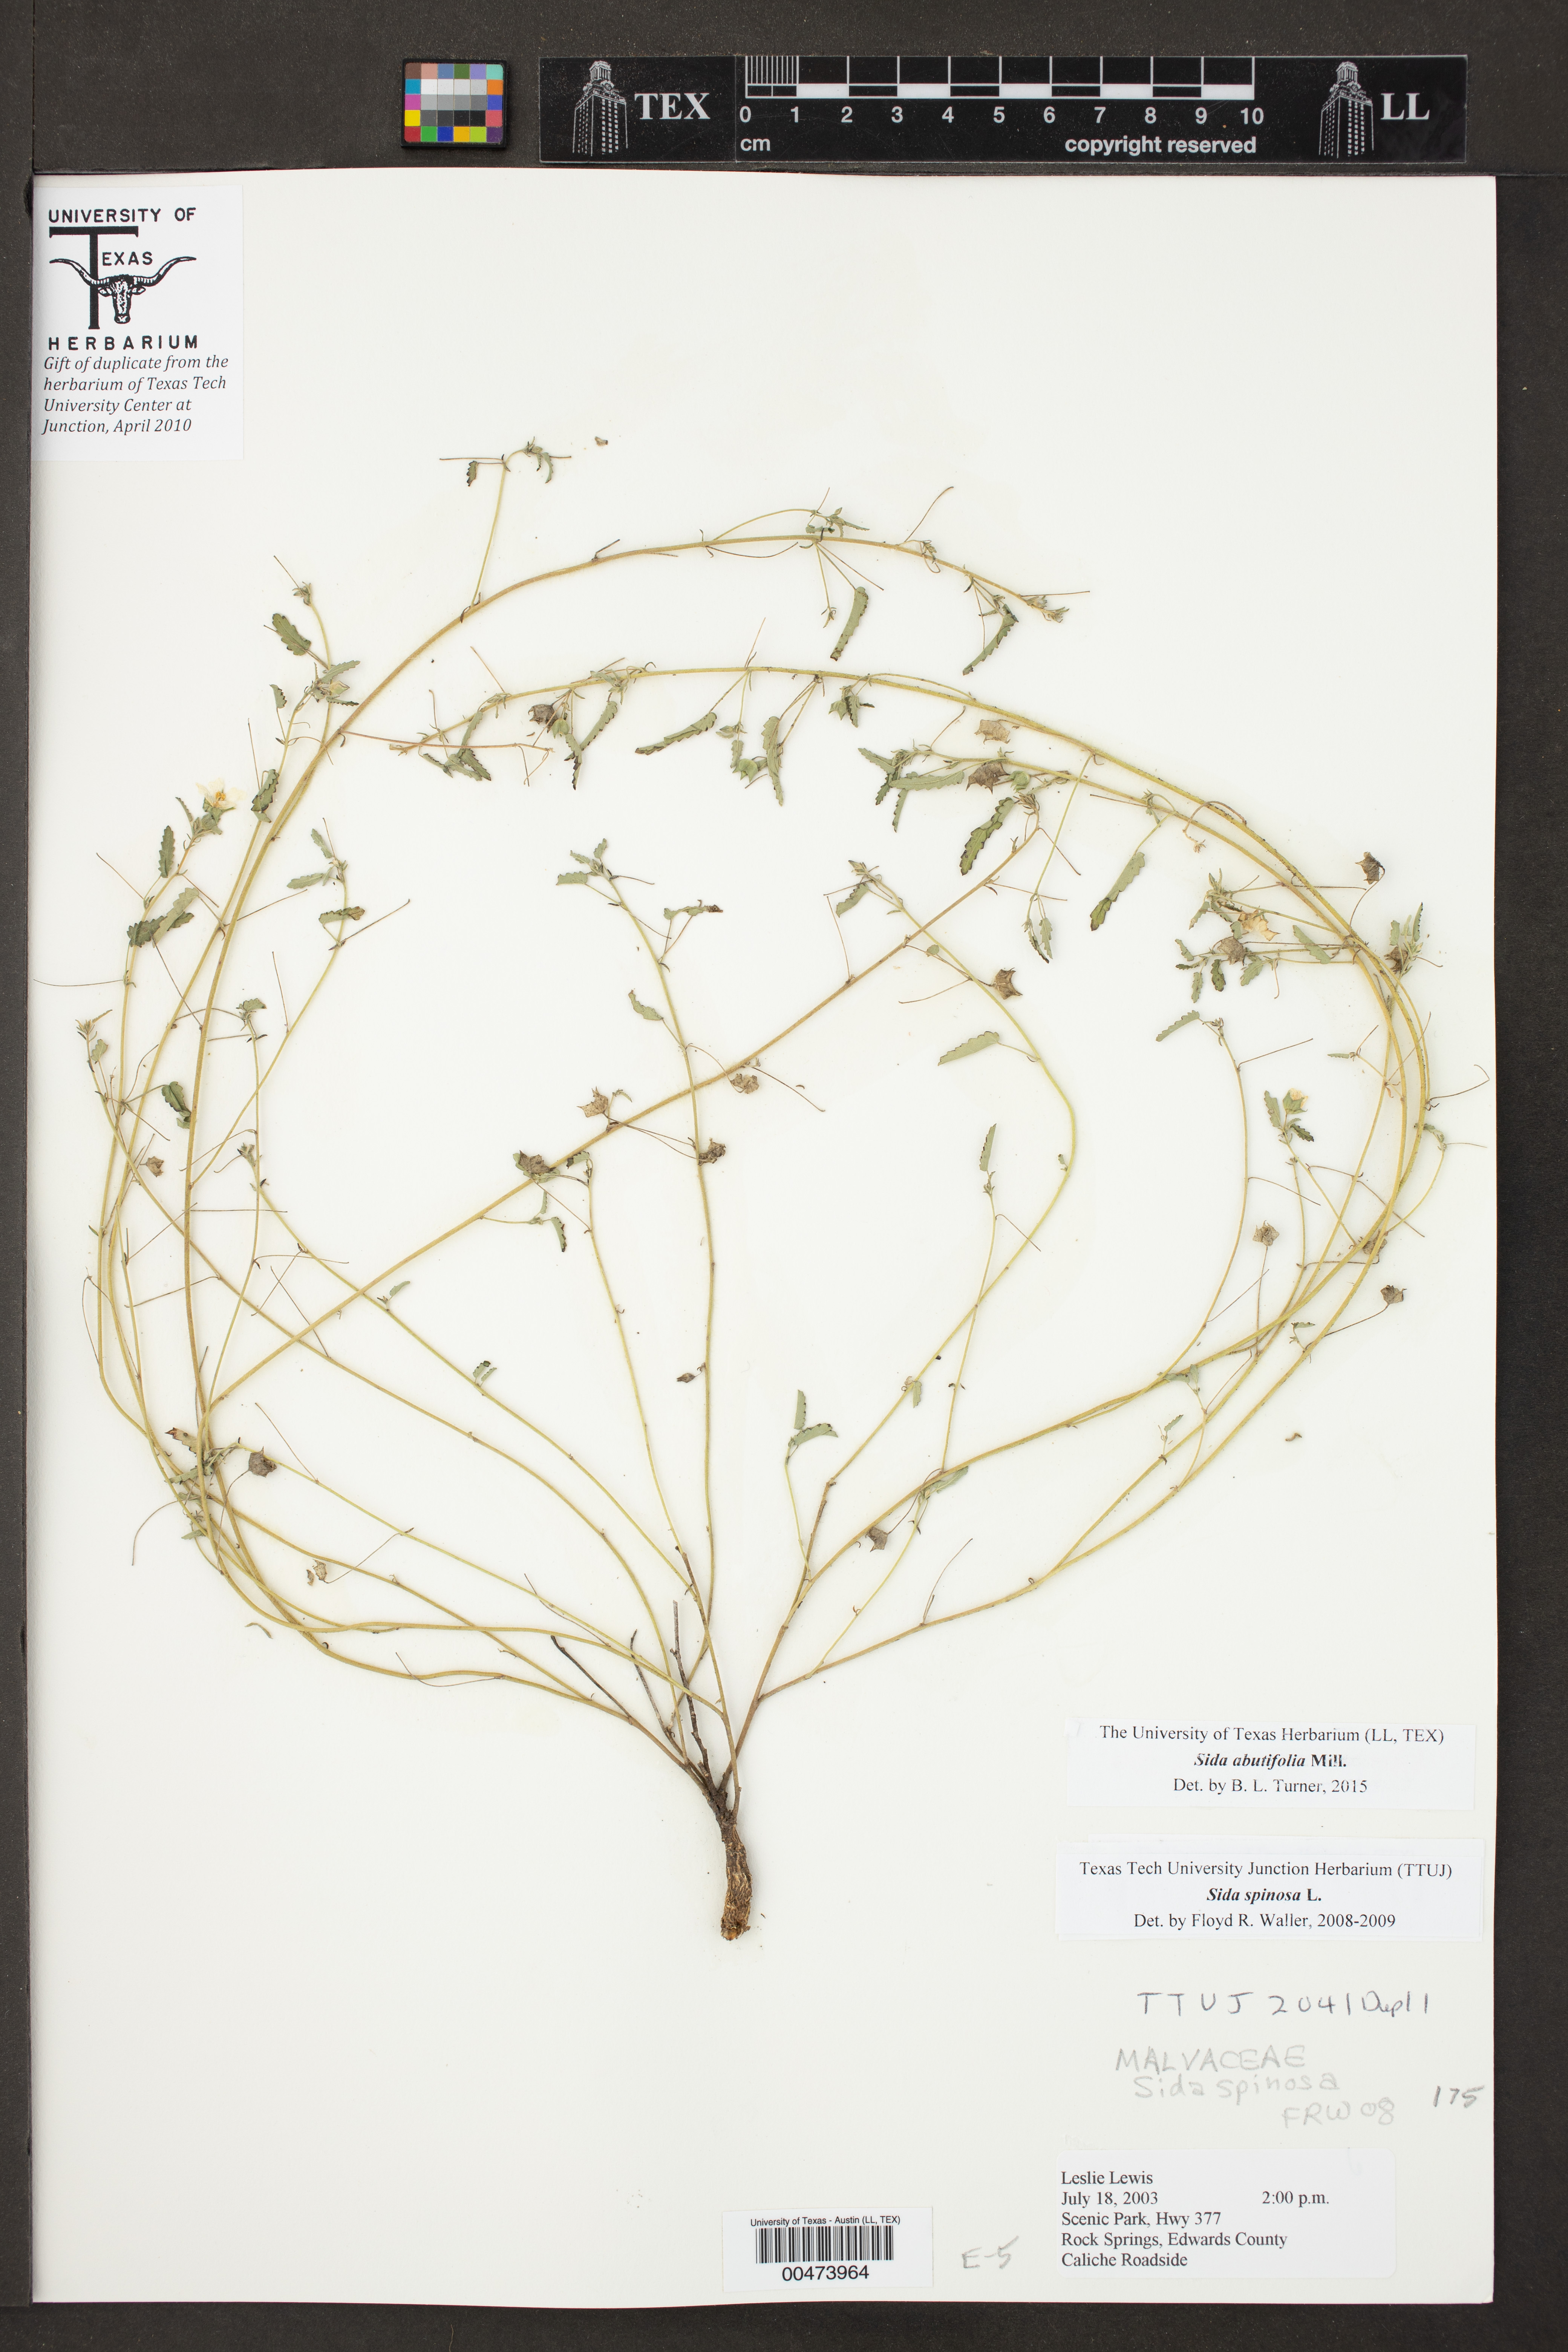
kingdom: Plantae
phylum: Tracheophyta
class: Magnoliopsida
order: Malvales
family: Malvaceae
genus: Sida
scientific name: Sida abutilifolia
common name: Spreading fanpetals
